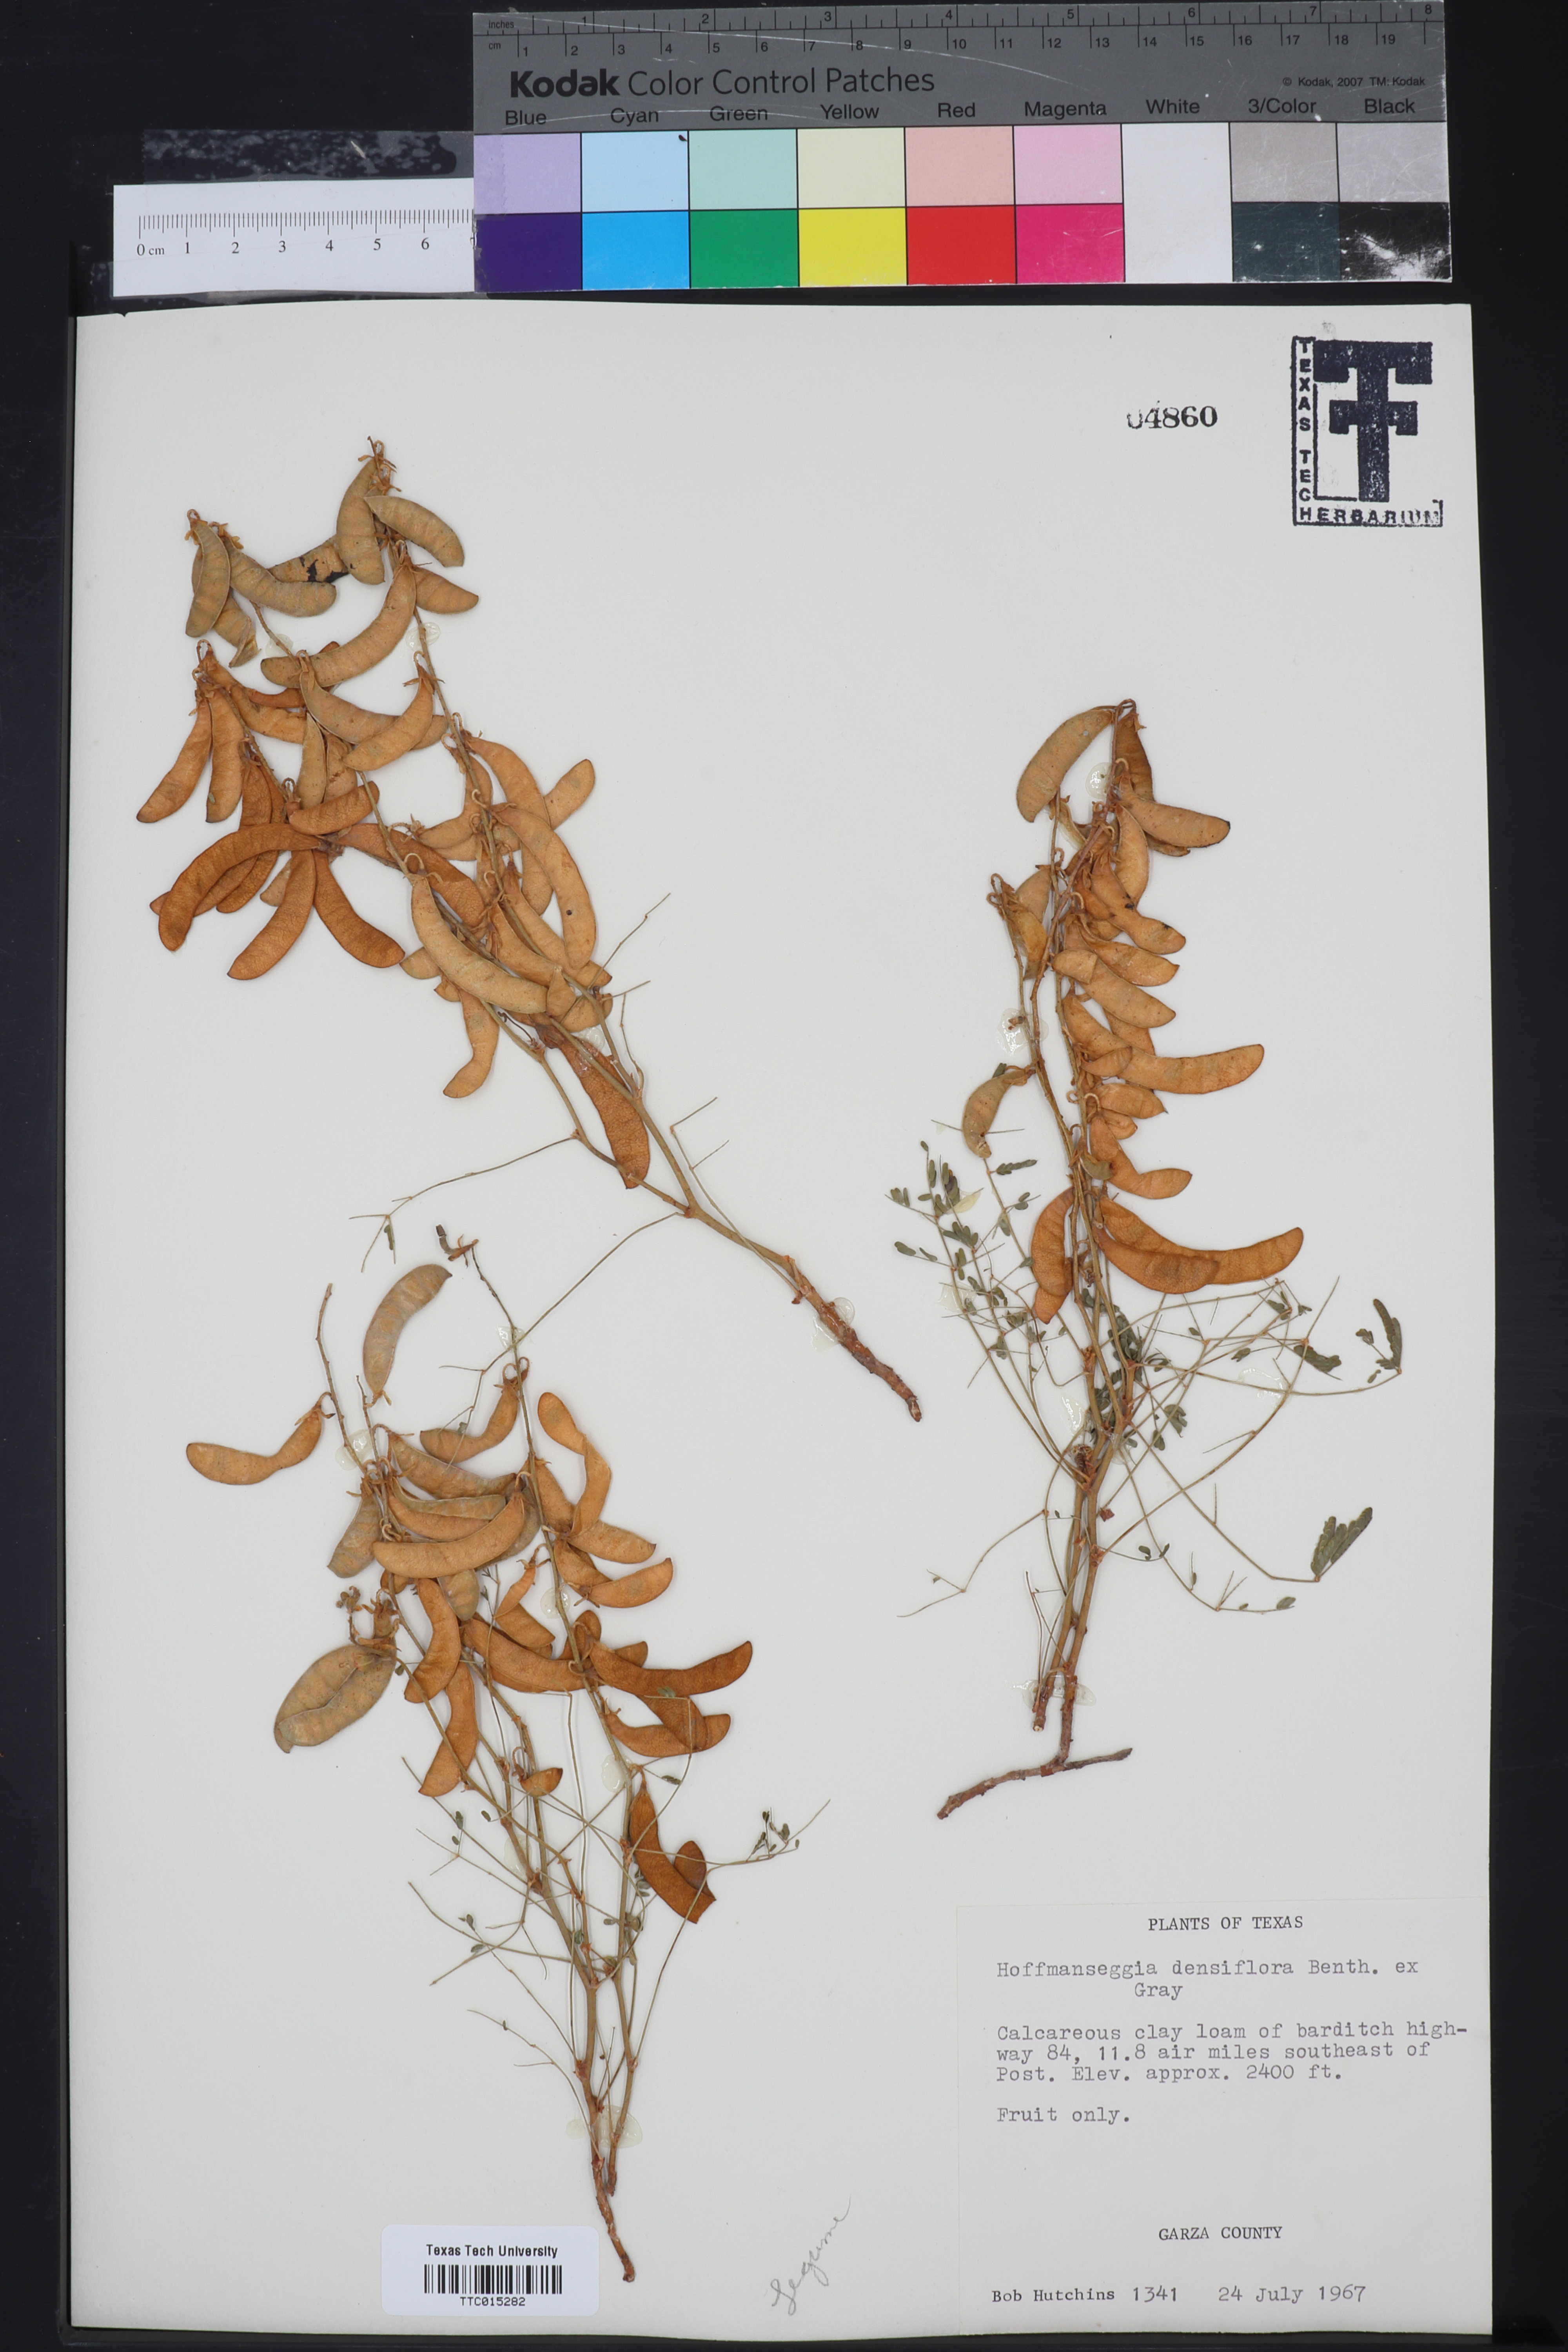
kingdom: Plantae
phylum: Tracheophyta
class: Magnoliopsida
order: Fabales
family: Fabaceae
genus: Hoffmannseggia
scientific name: Hoffmannseggia glauca
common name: Pignut
